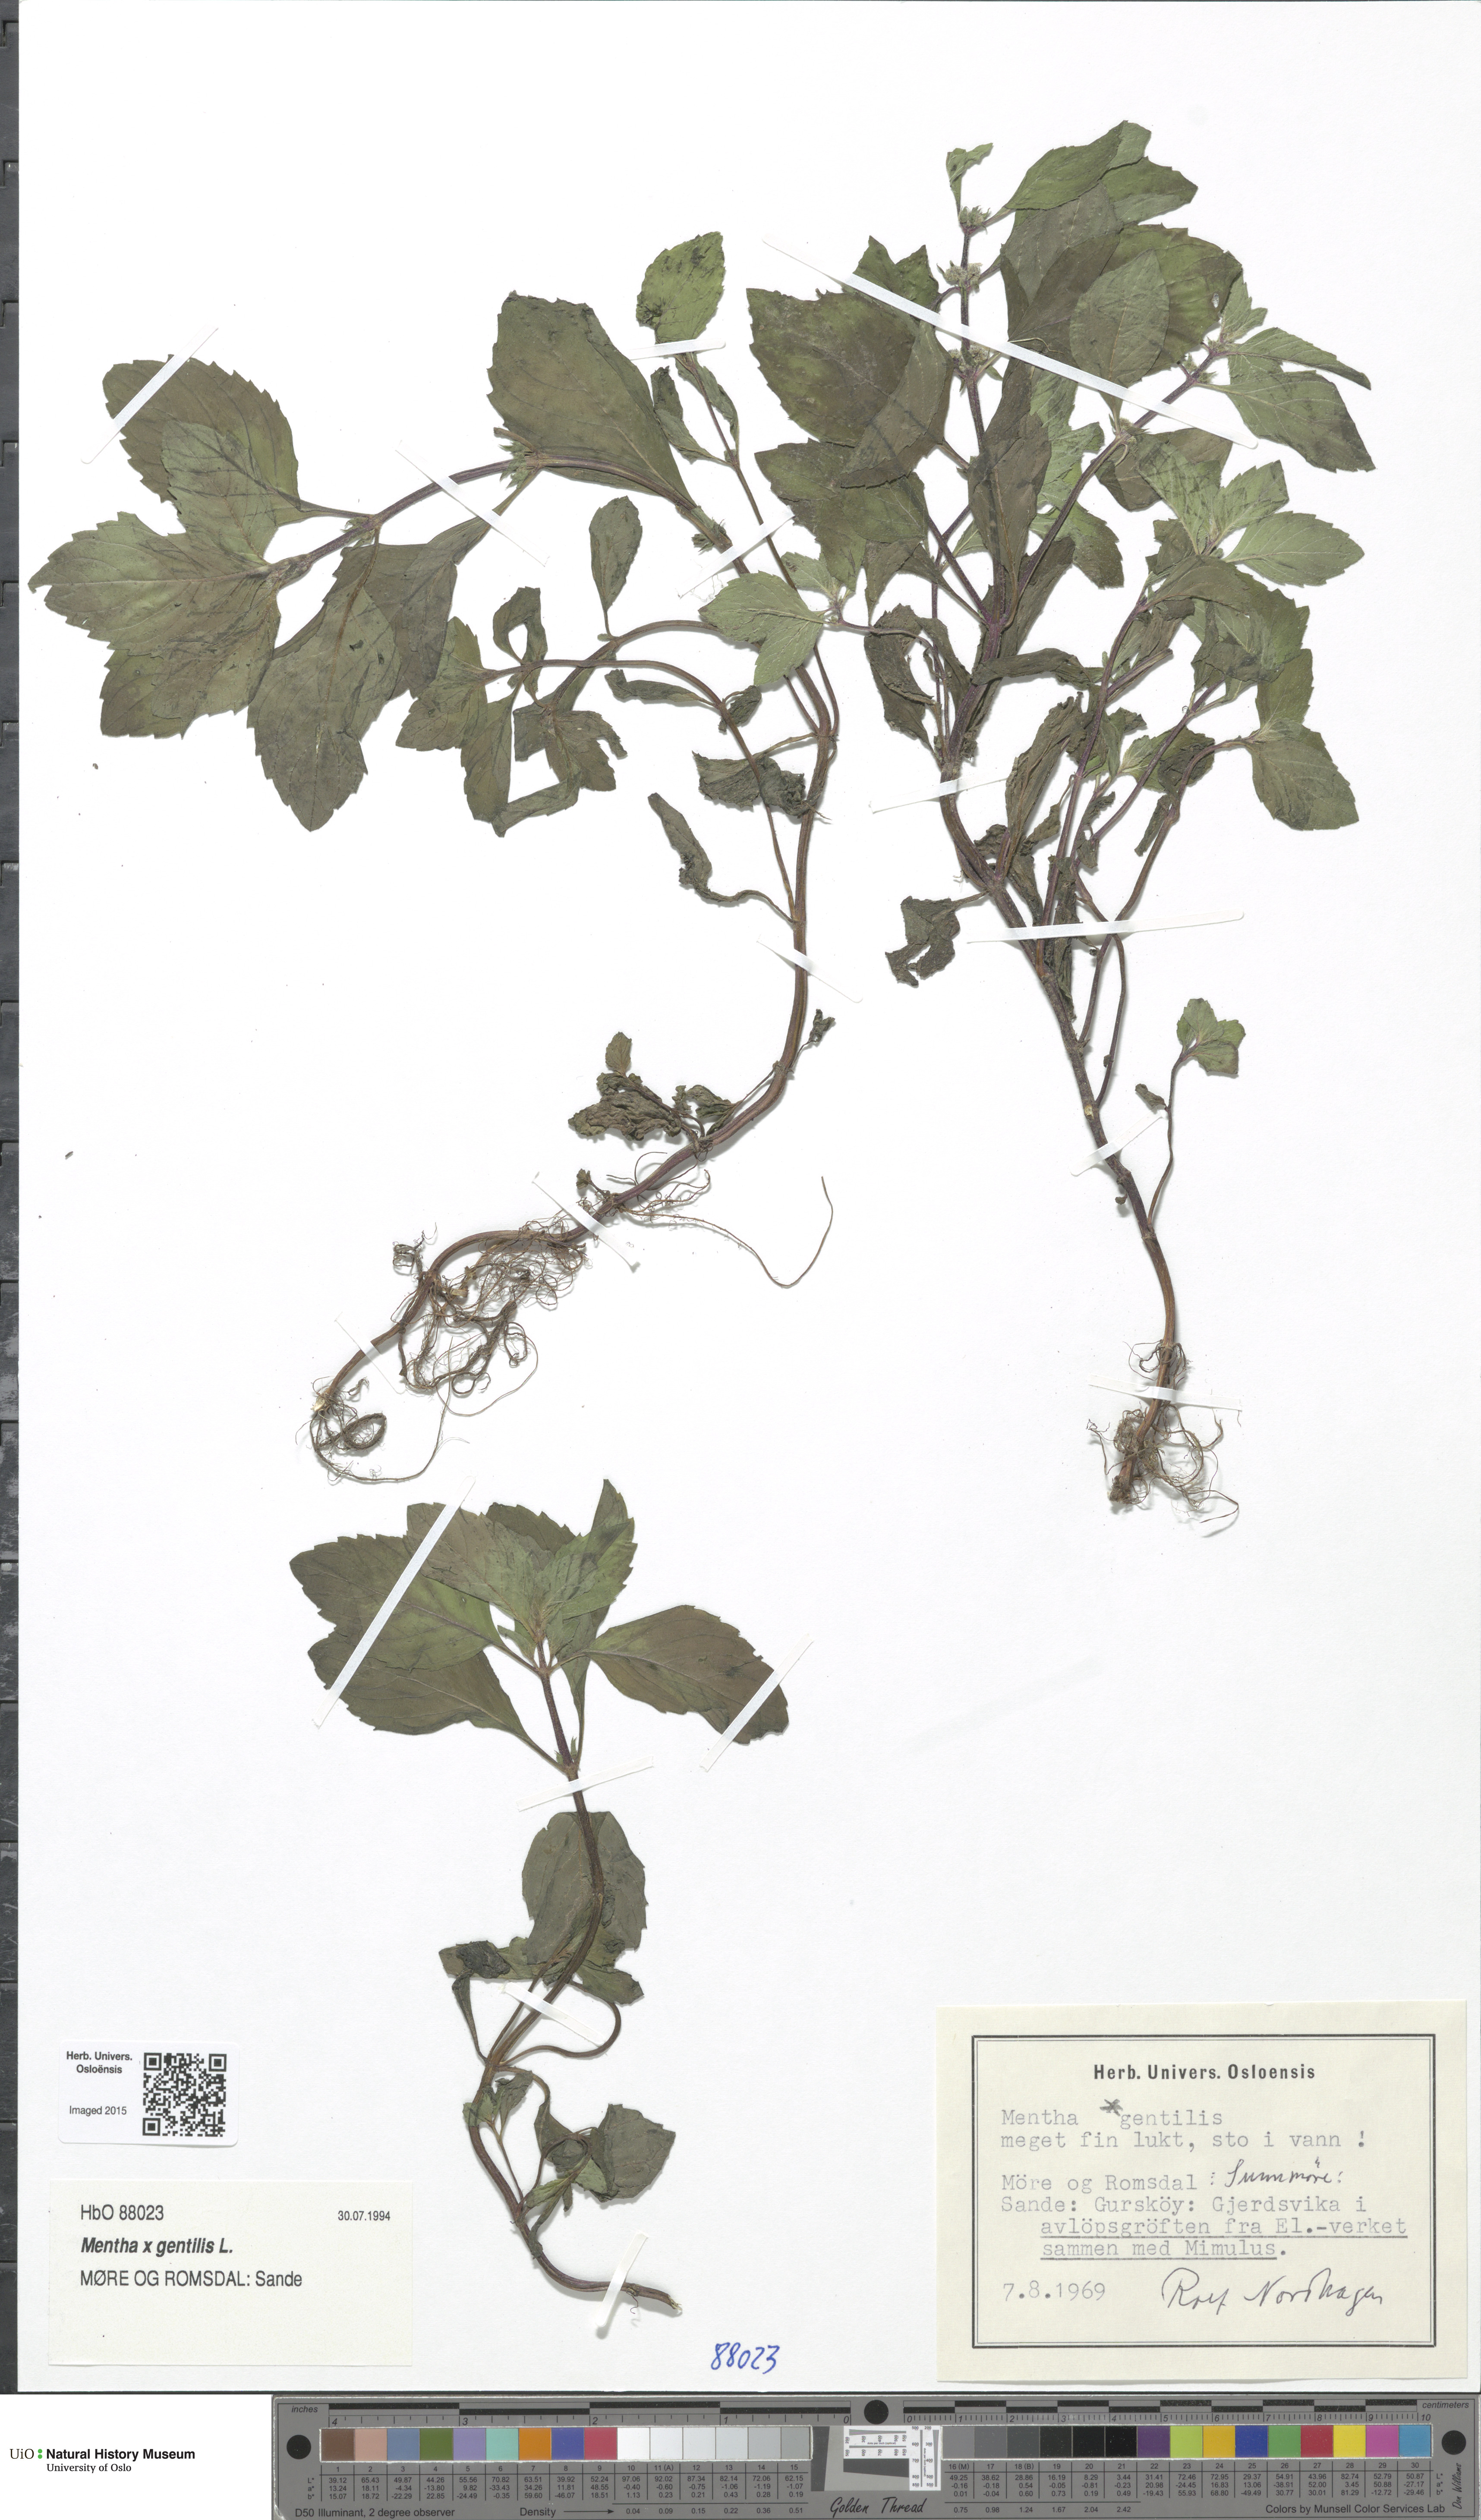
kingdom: Plantae
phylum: Tracheophyta
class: Magnoliopsida
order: Lamiales
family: Lamiaceae
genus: Mentha
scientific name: Mentha arvensis
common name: Corn mint
